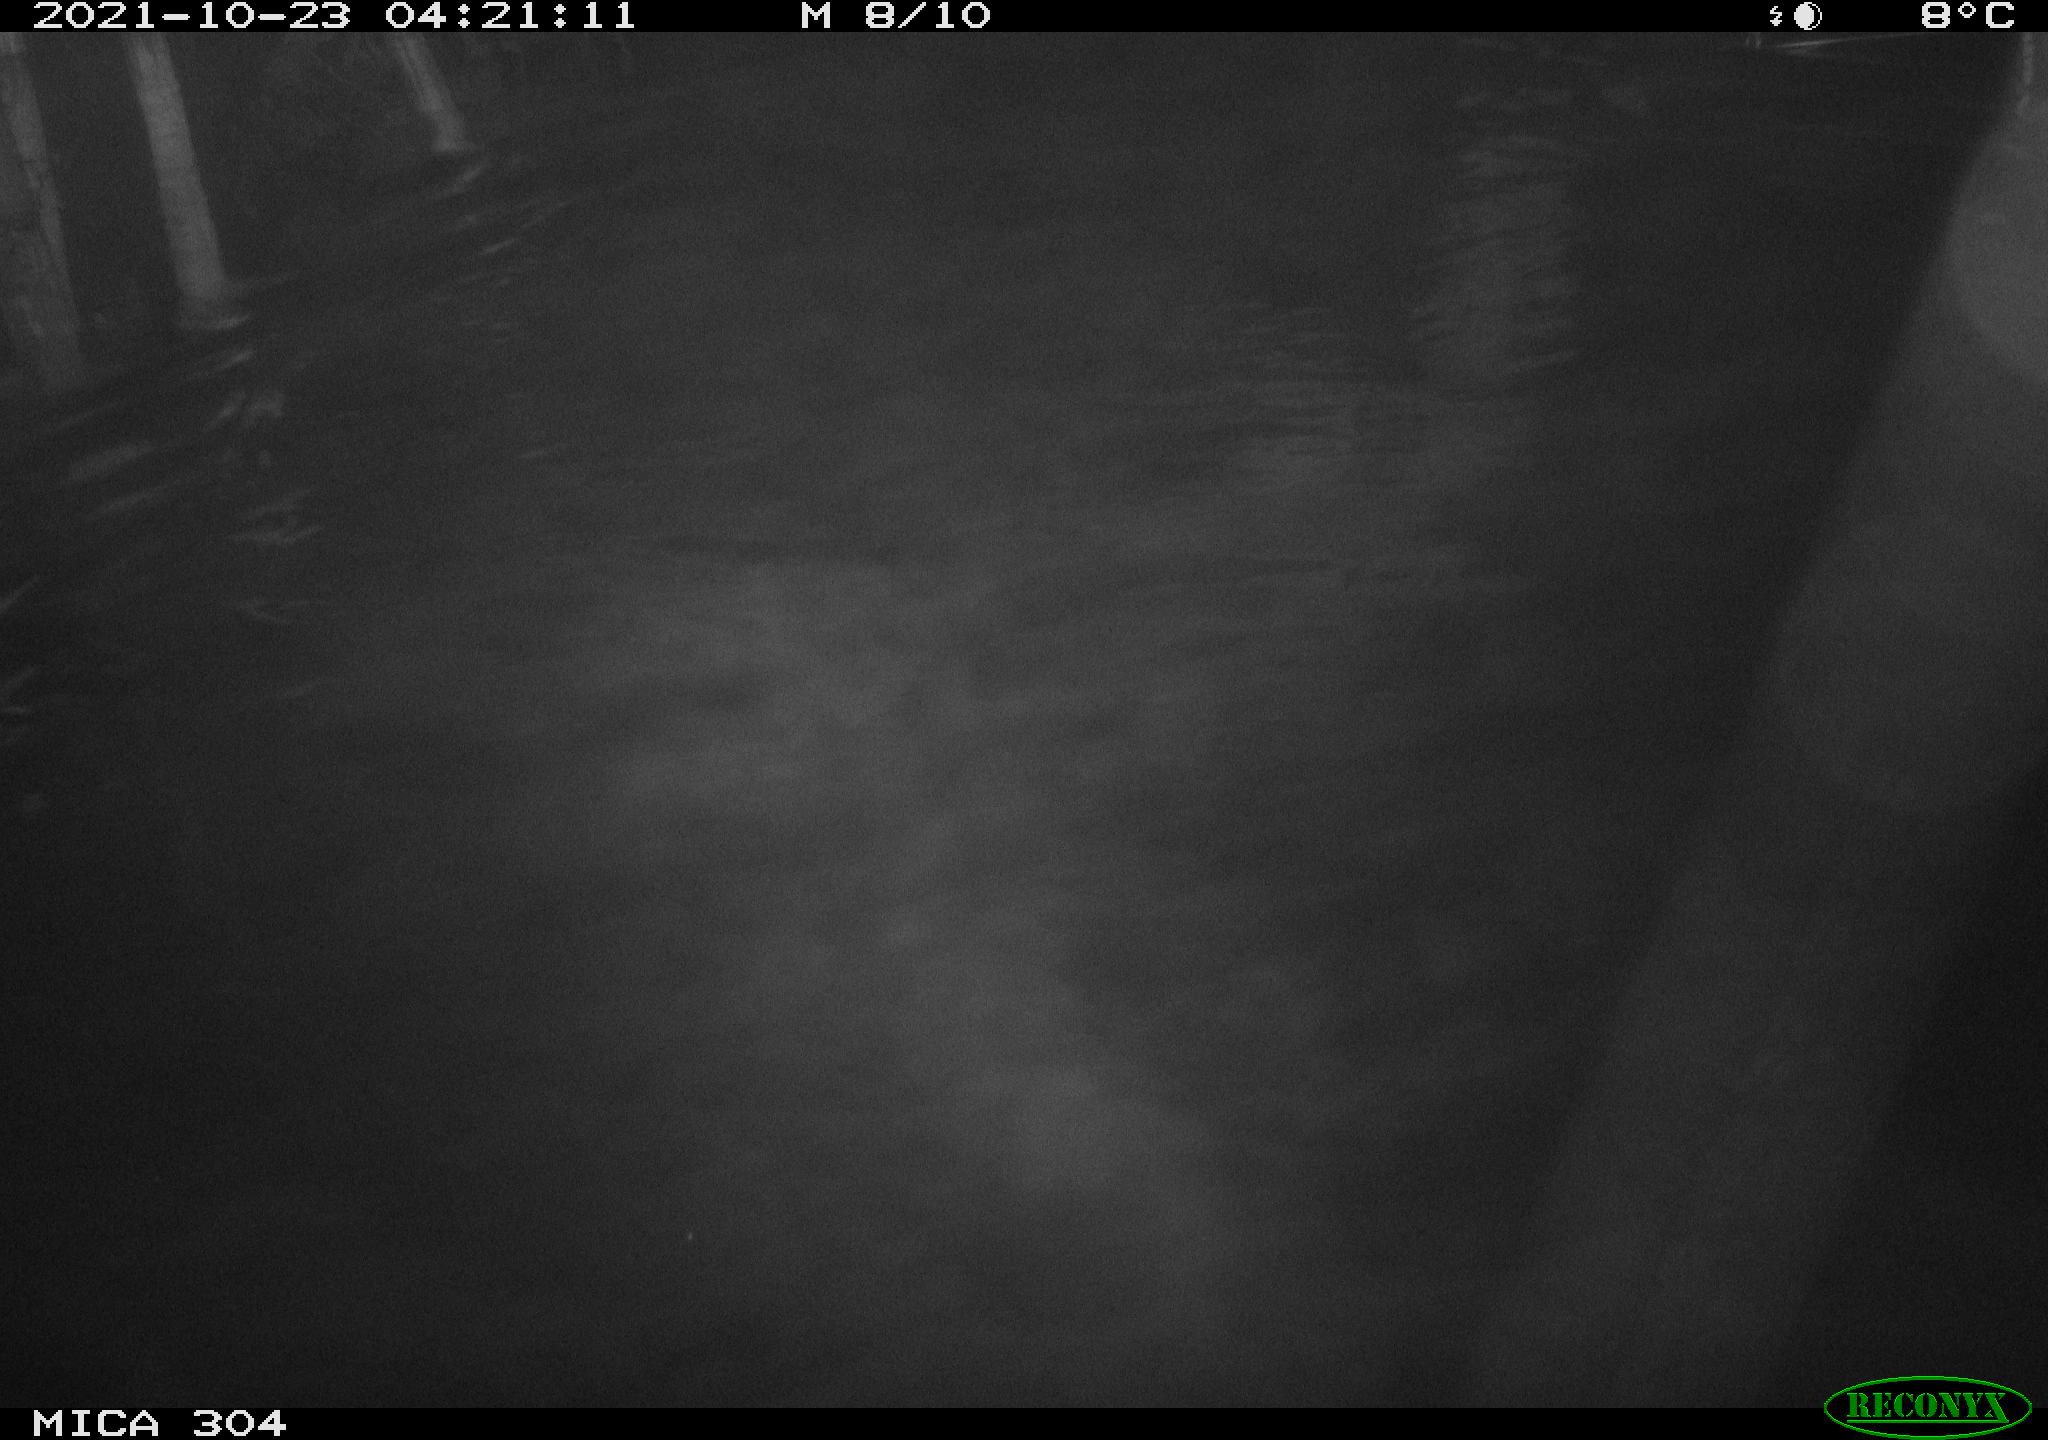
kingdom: Animalia
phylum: Chordata
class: Mammalia
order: Rodentia
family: Cricetidae
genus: Ondatra
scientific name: Ondatra zibethicus
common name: Muskrat
